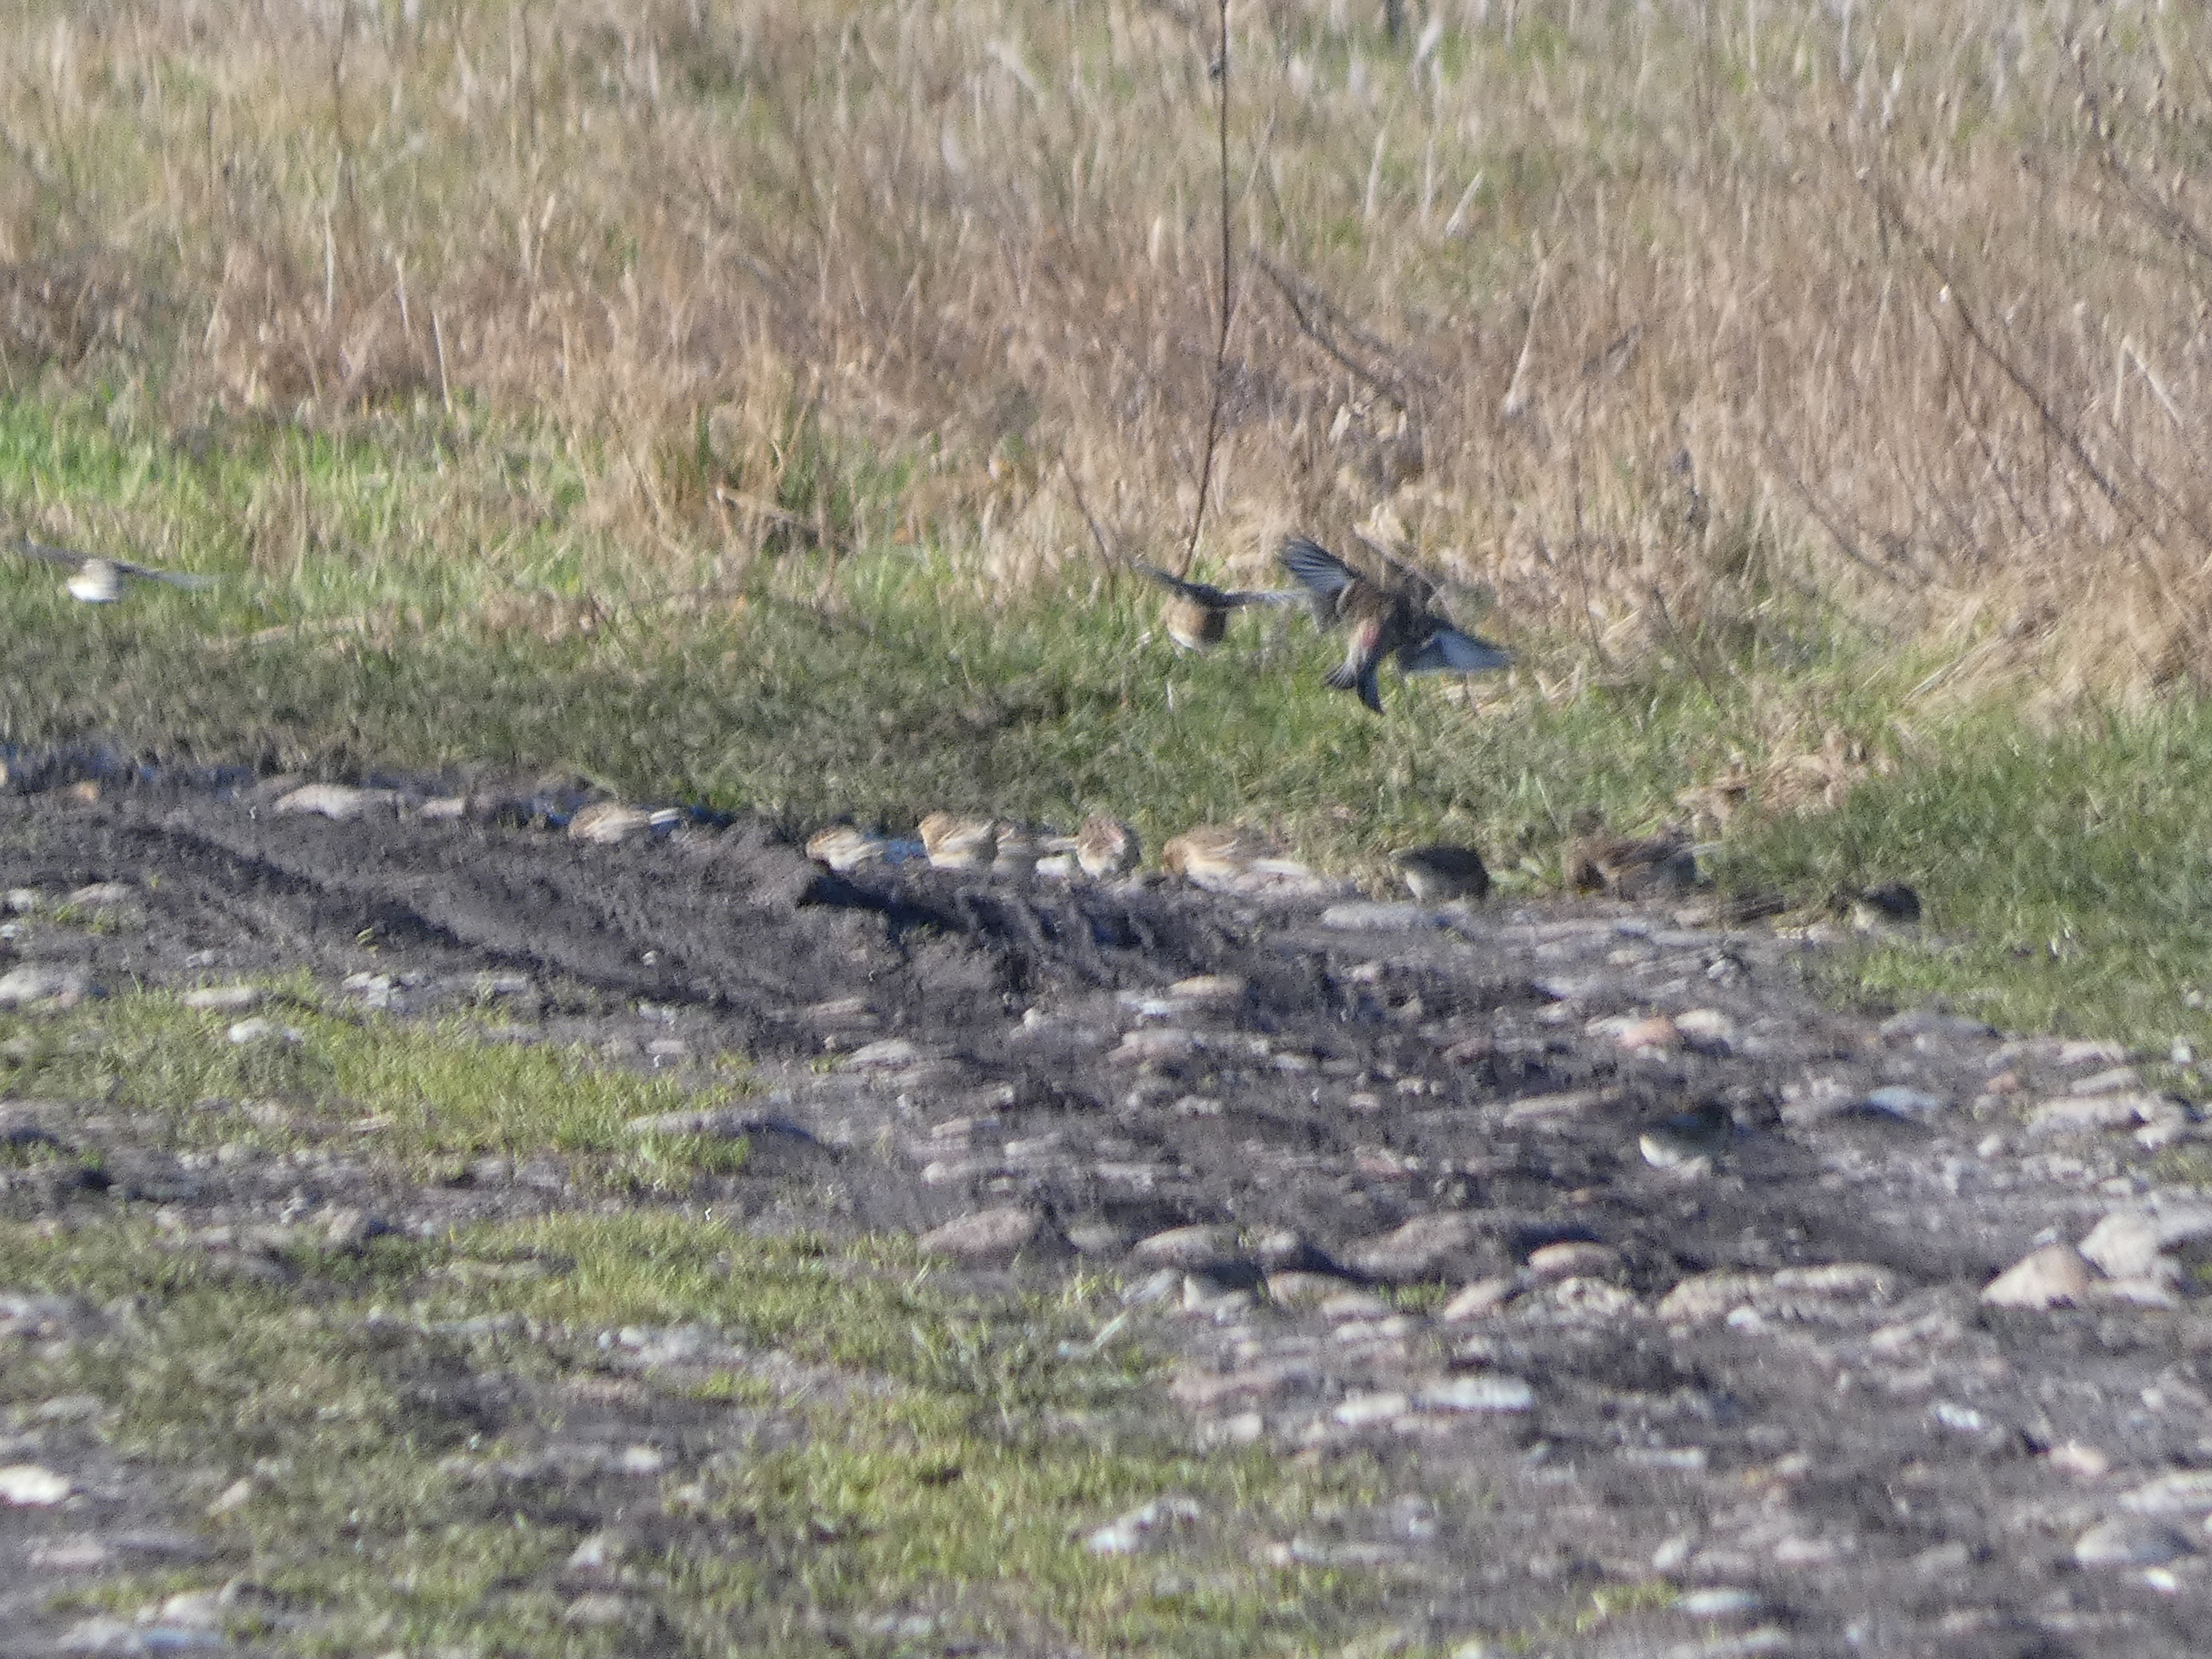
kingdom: Animalia
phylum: Chordata
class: Aves
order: Passeriformes
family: Fringillidae
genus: Linaria
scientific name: Linaria flavirostris
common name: Bjergirisk
